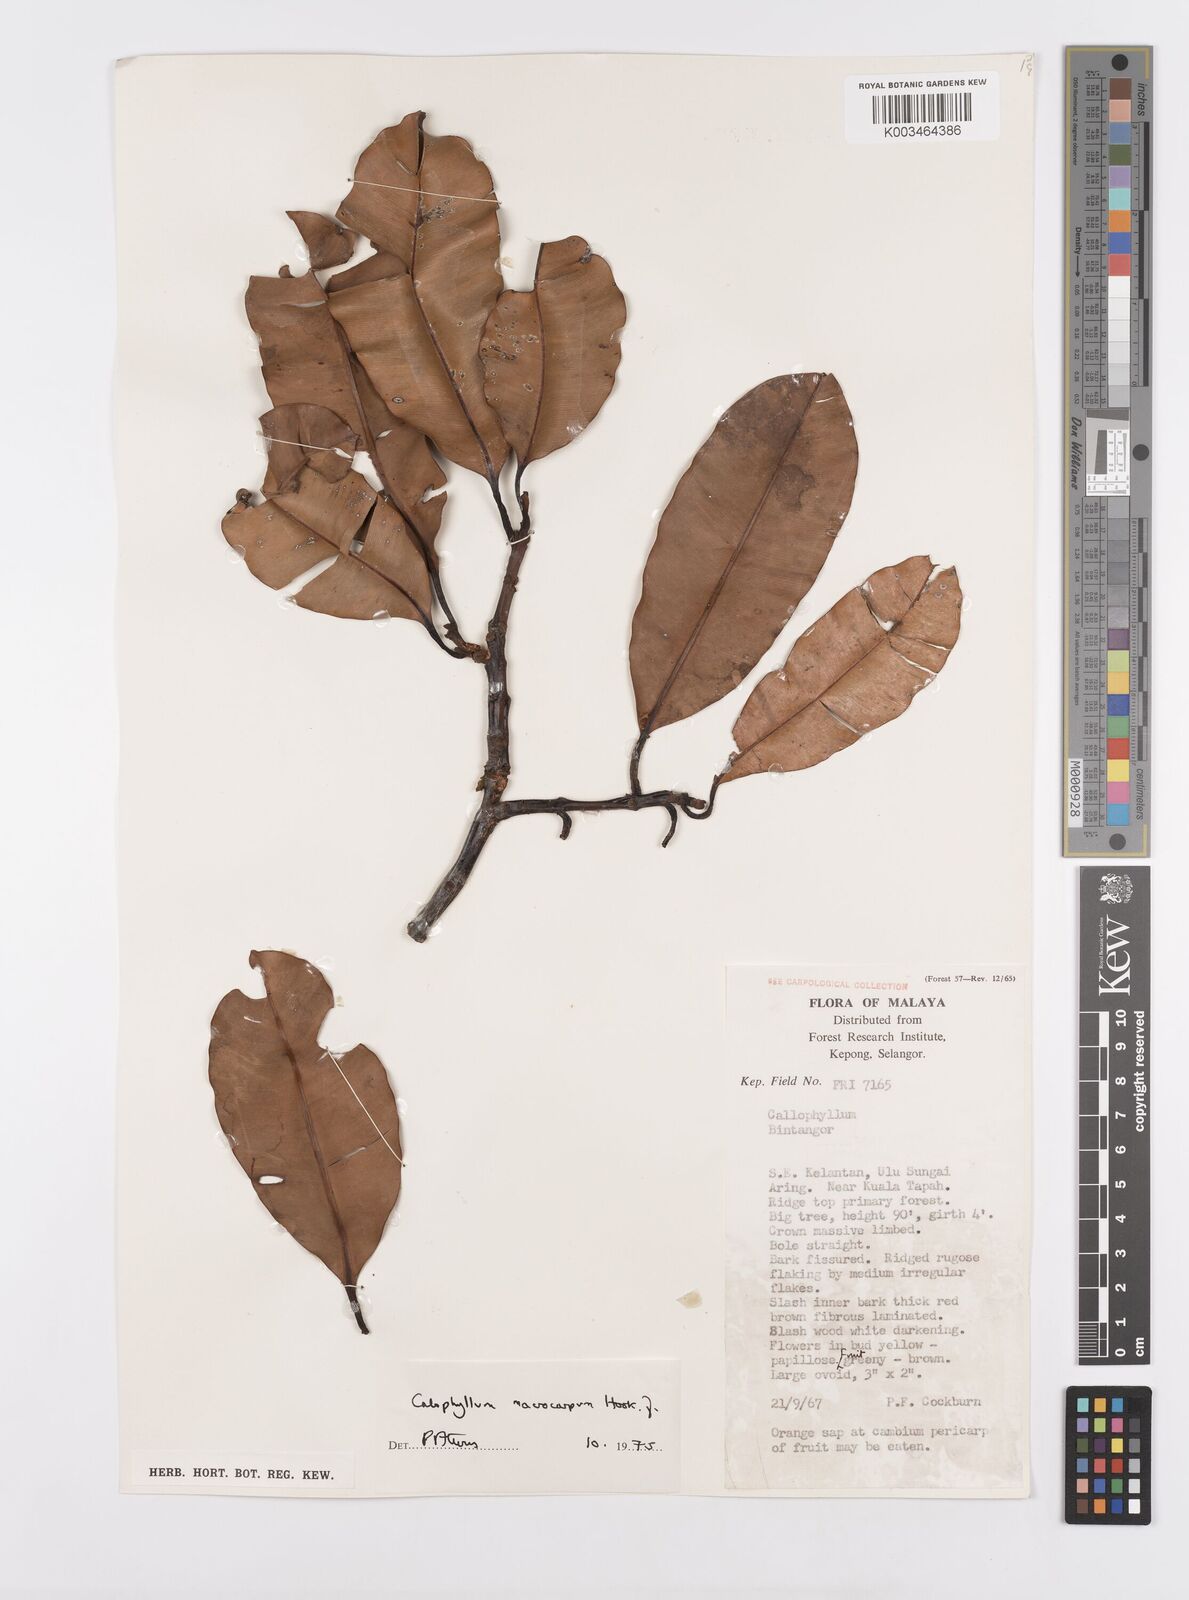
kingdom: Plantae
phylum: Tracheophyta
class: Magnoliopsida
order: Malpighiales
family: Calophyllaceae
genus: Calophyllum
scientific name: Calophyllum macrocarpum
